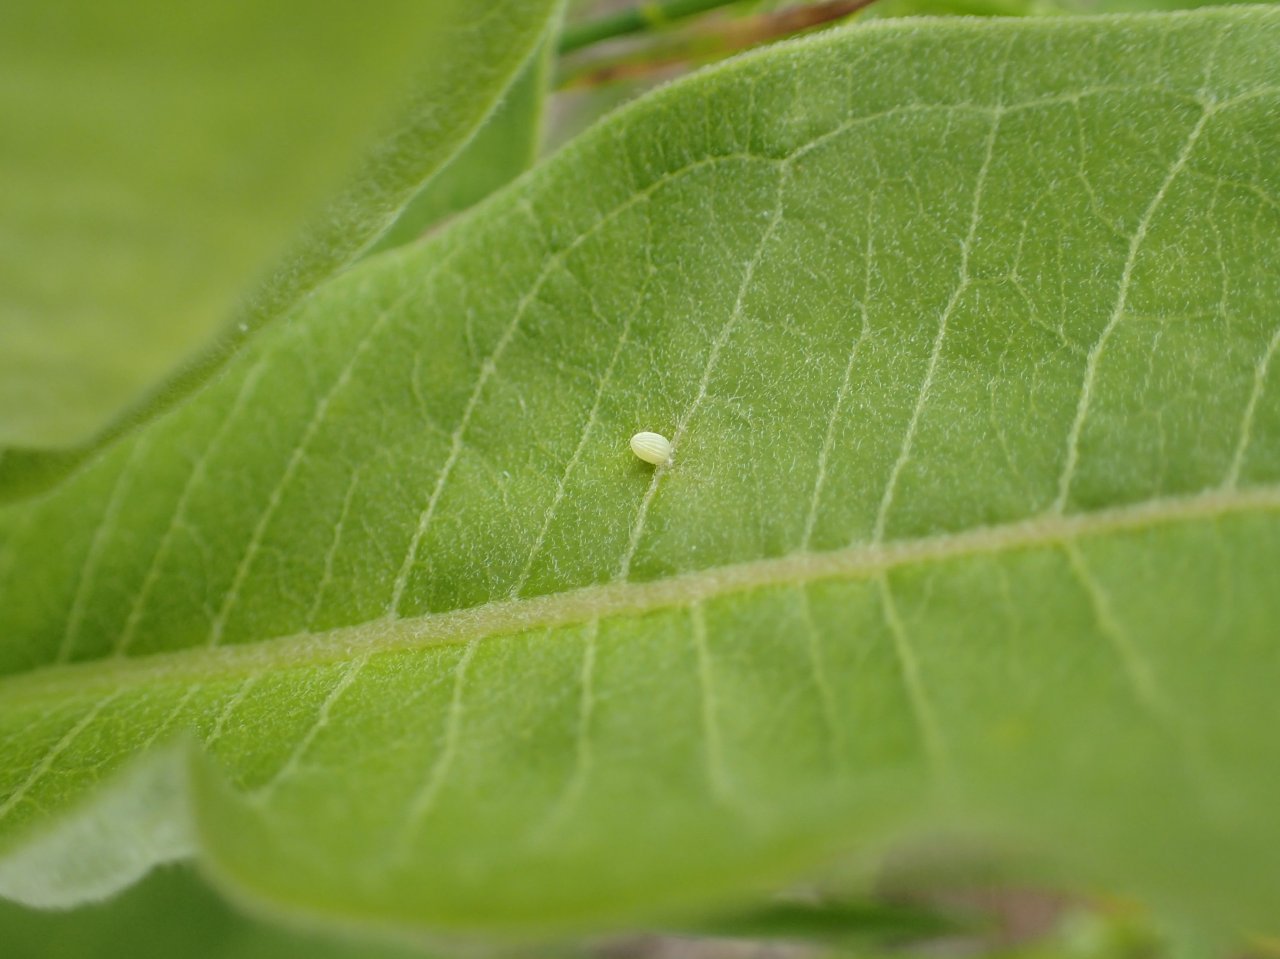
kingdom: Animalia
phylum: Arthropoda
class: Insecta
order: Lepidoptera
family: Nymphalidae
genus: Danaus
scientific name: Danaus plexippus
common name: Monarch
